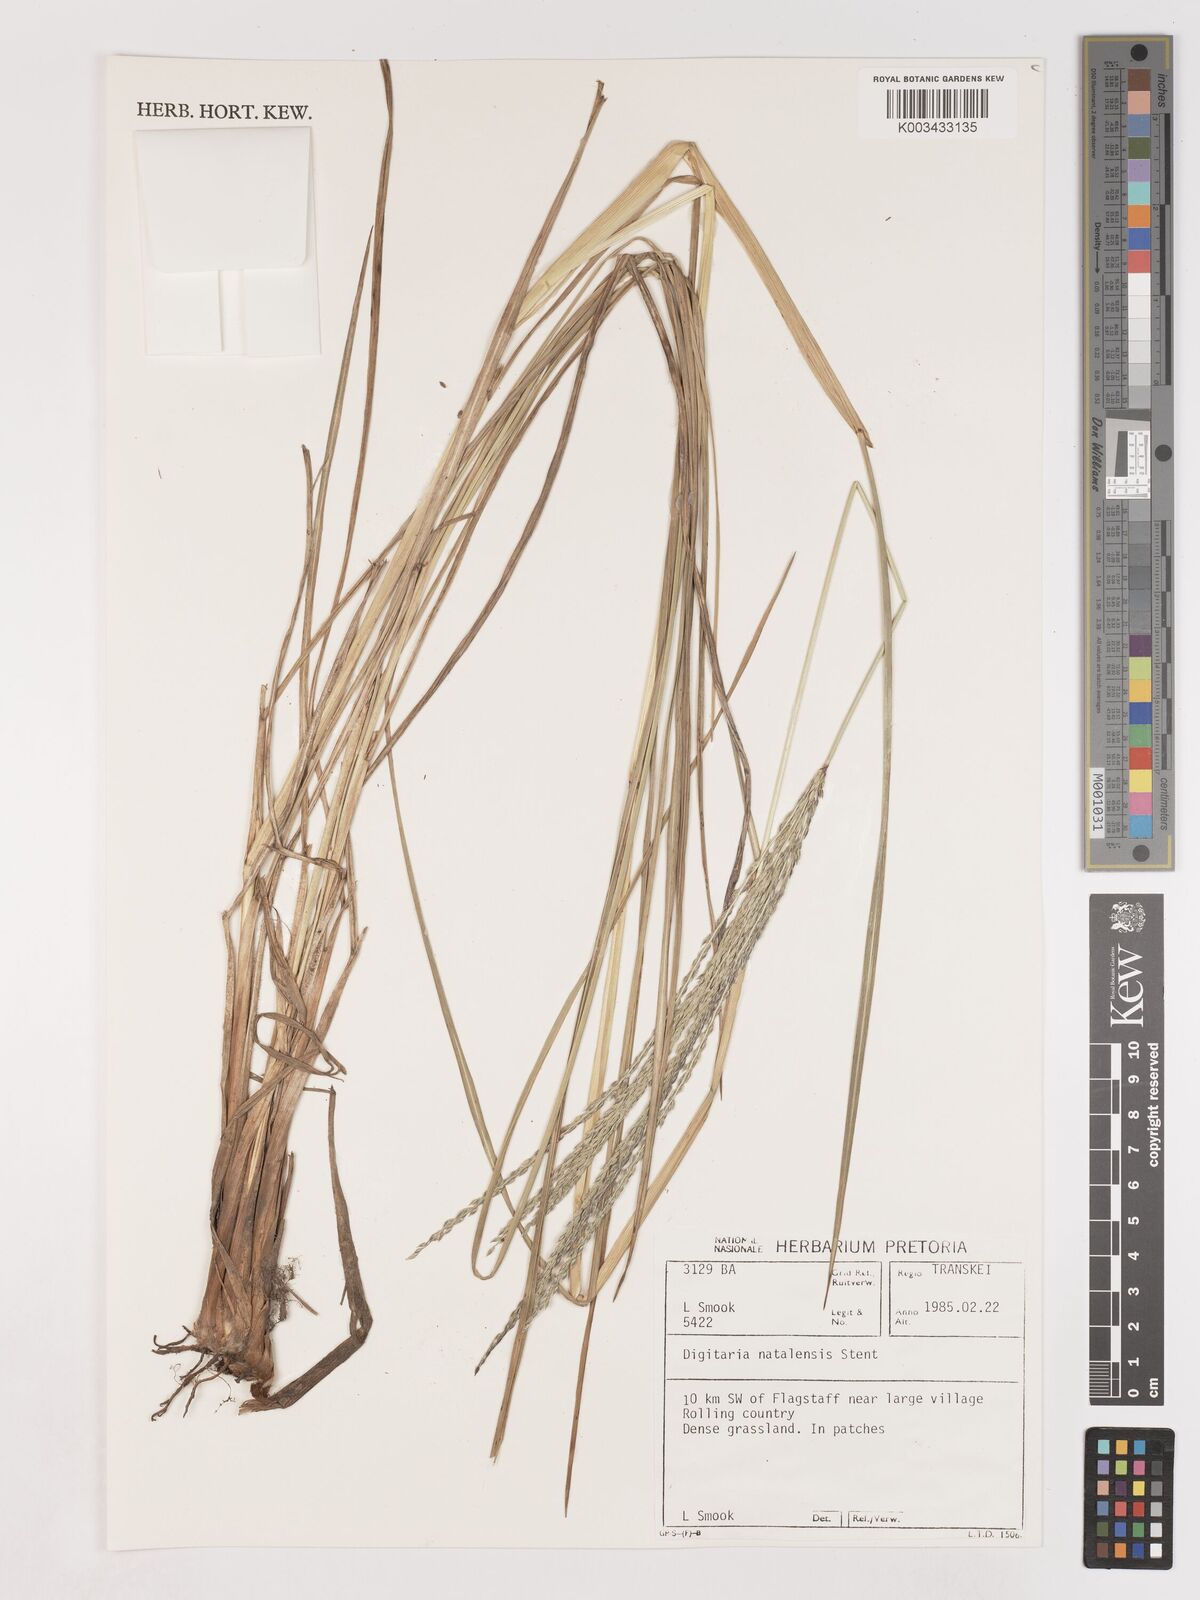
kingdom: Plantae
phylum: Tracheophyta
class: Liliopsida
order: Poales
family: Poaceae
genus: Digitaria
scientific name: Digitaria natalensis
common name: Coast finger grass
